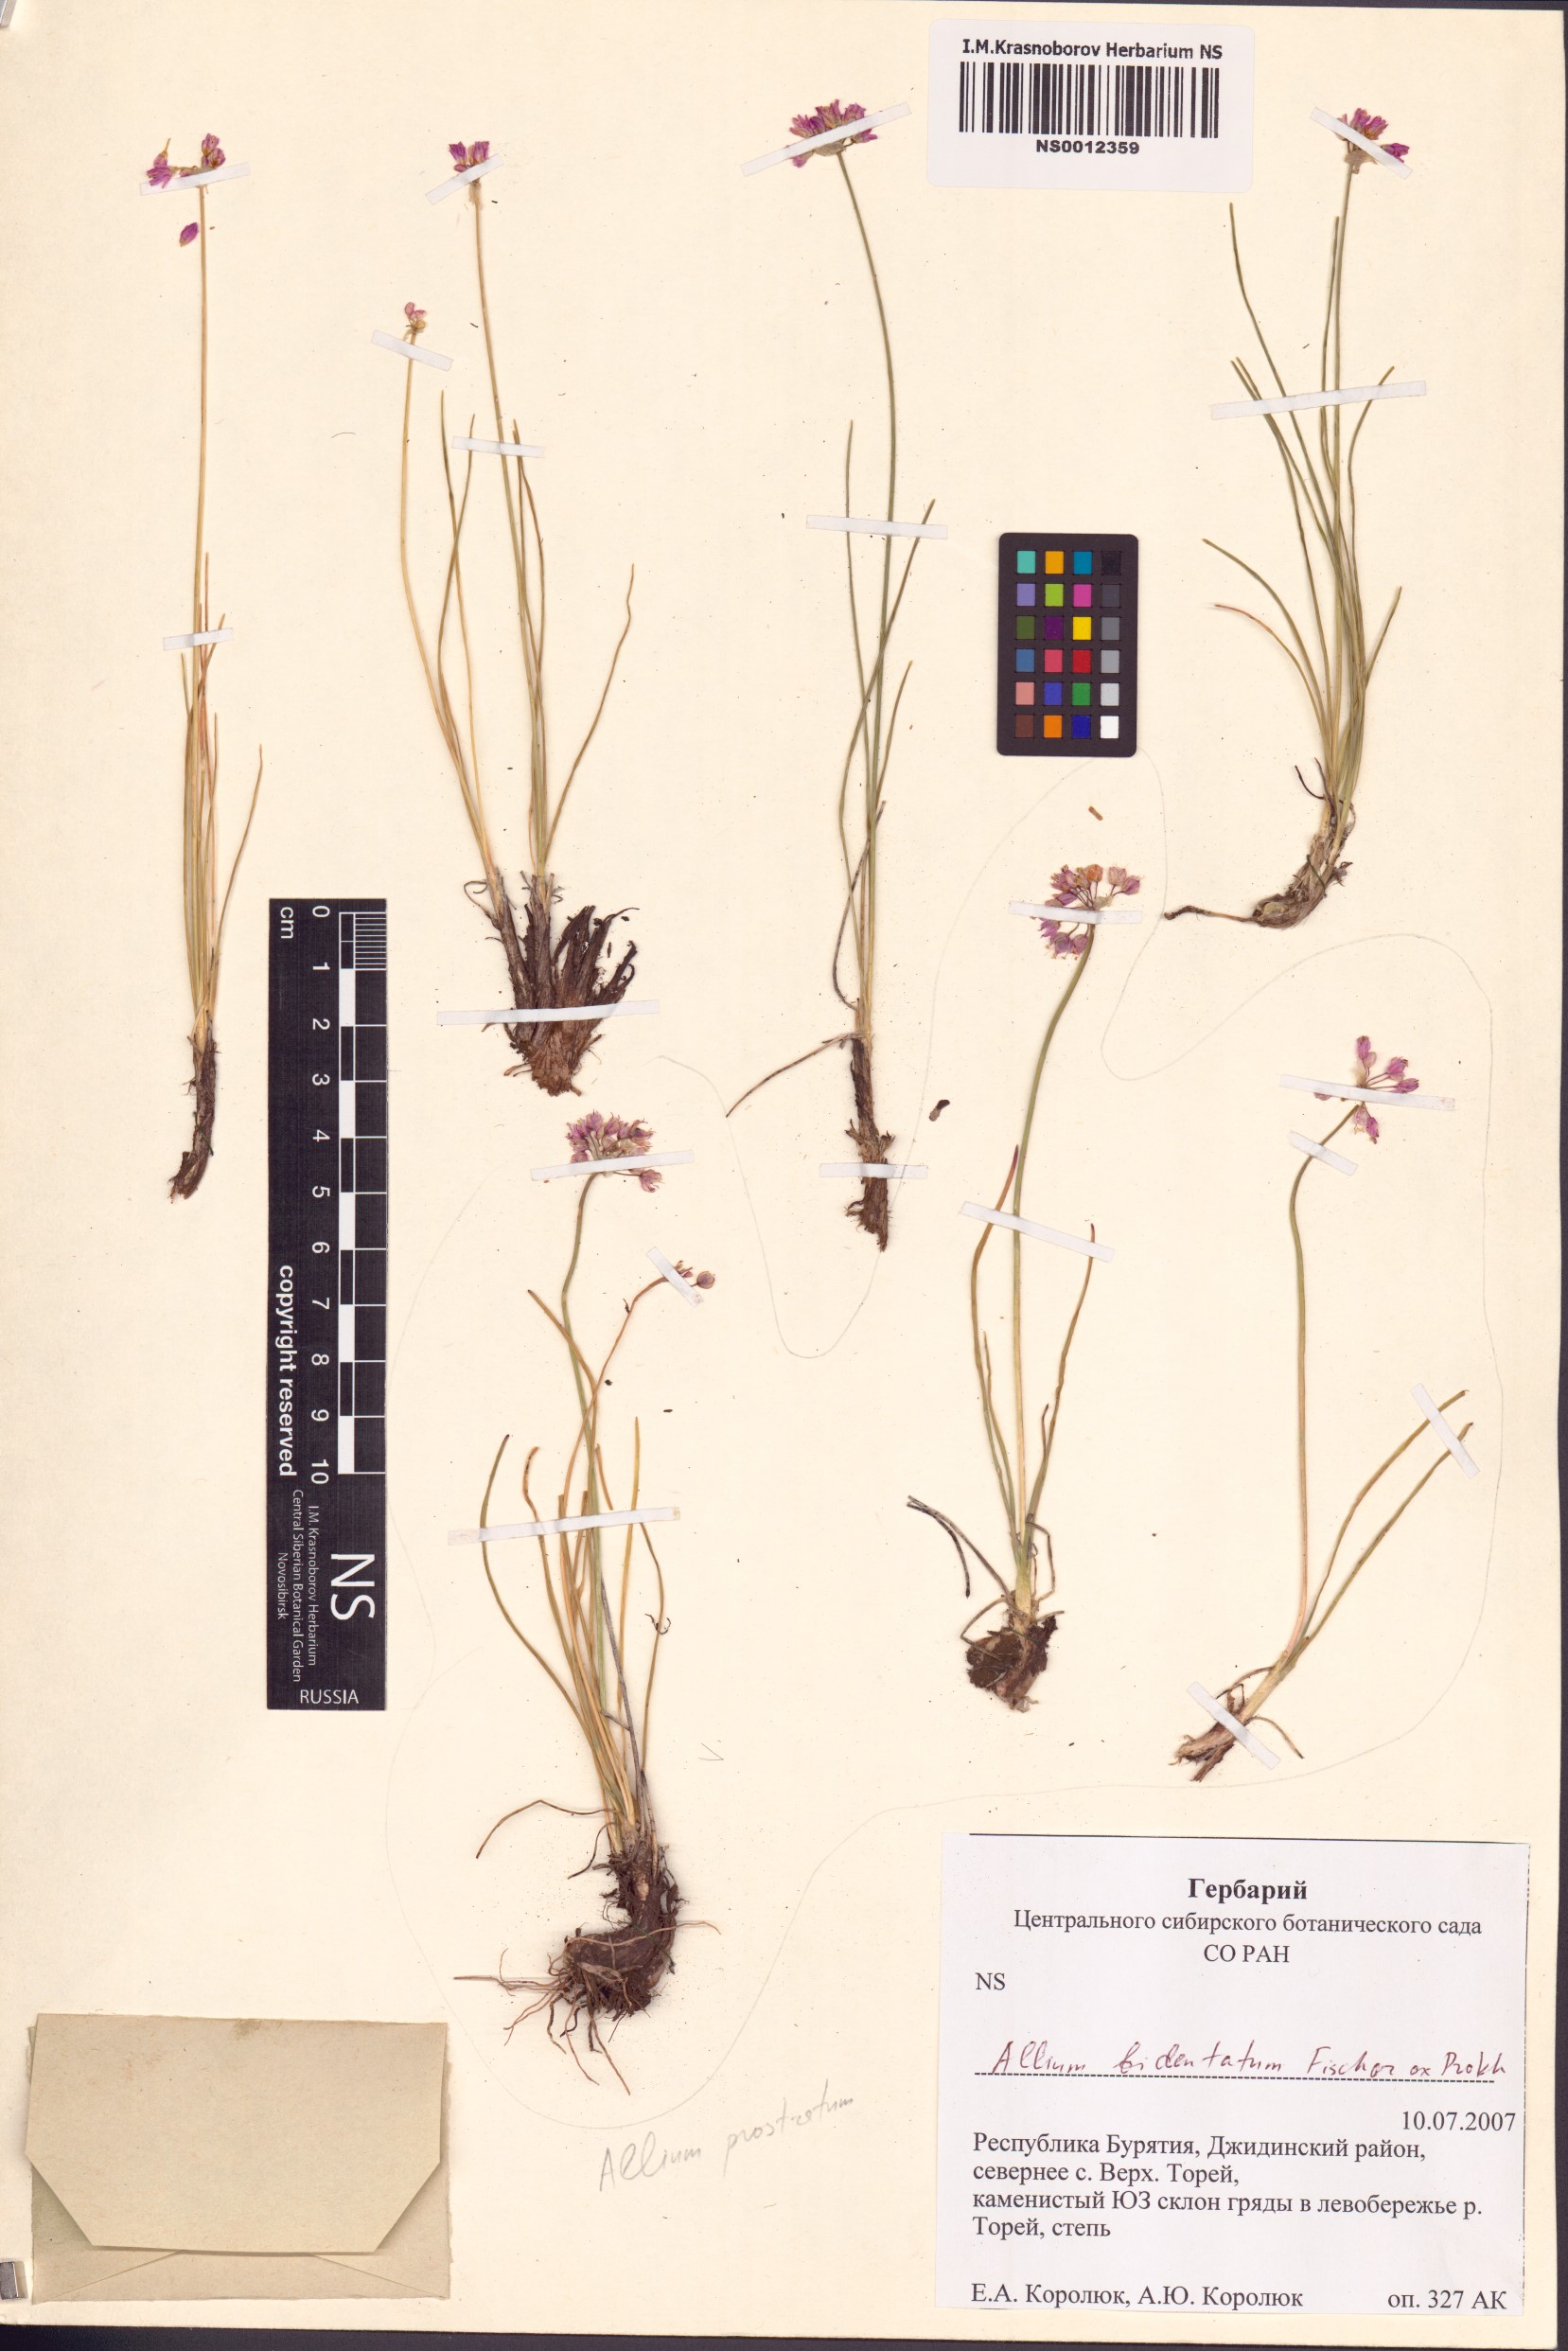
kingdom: Plantae
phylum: Tracheophyta
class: Liliopsida
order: Asparagales
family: Amaryllidaceae
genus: Allium
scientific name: Allium bidentatum
